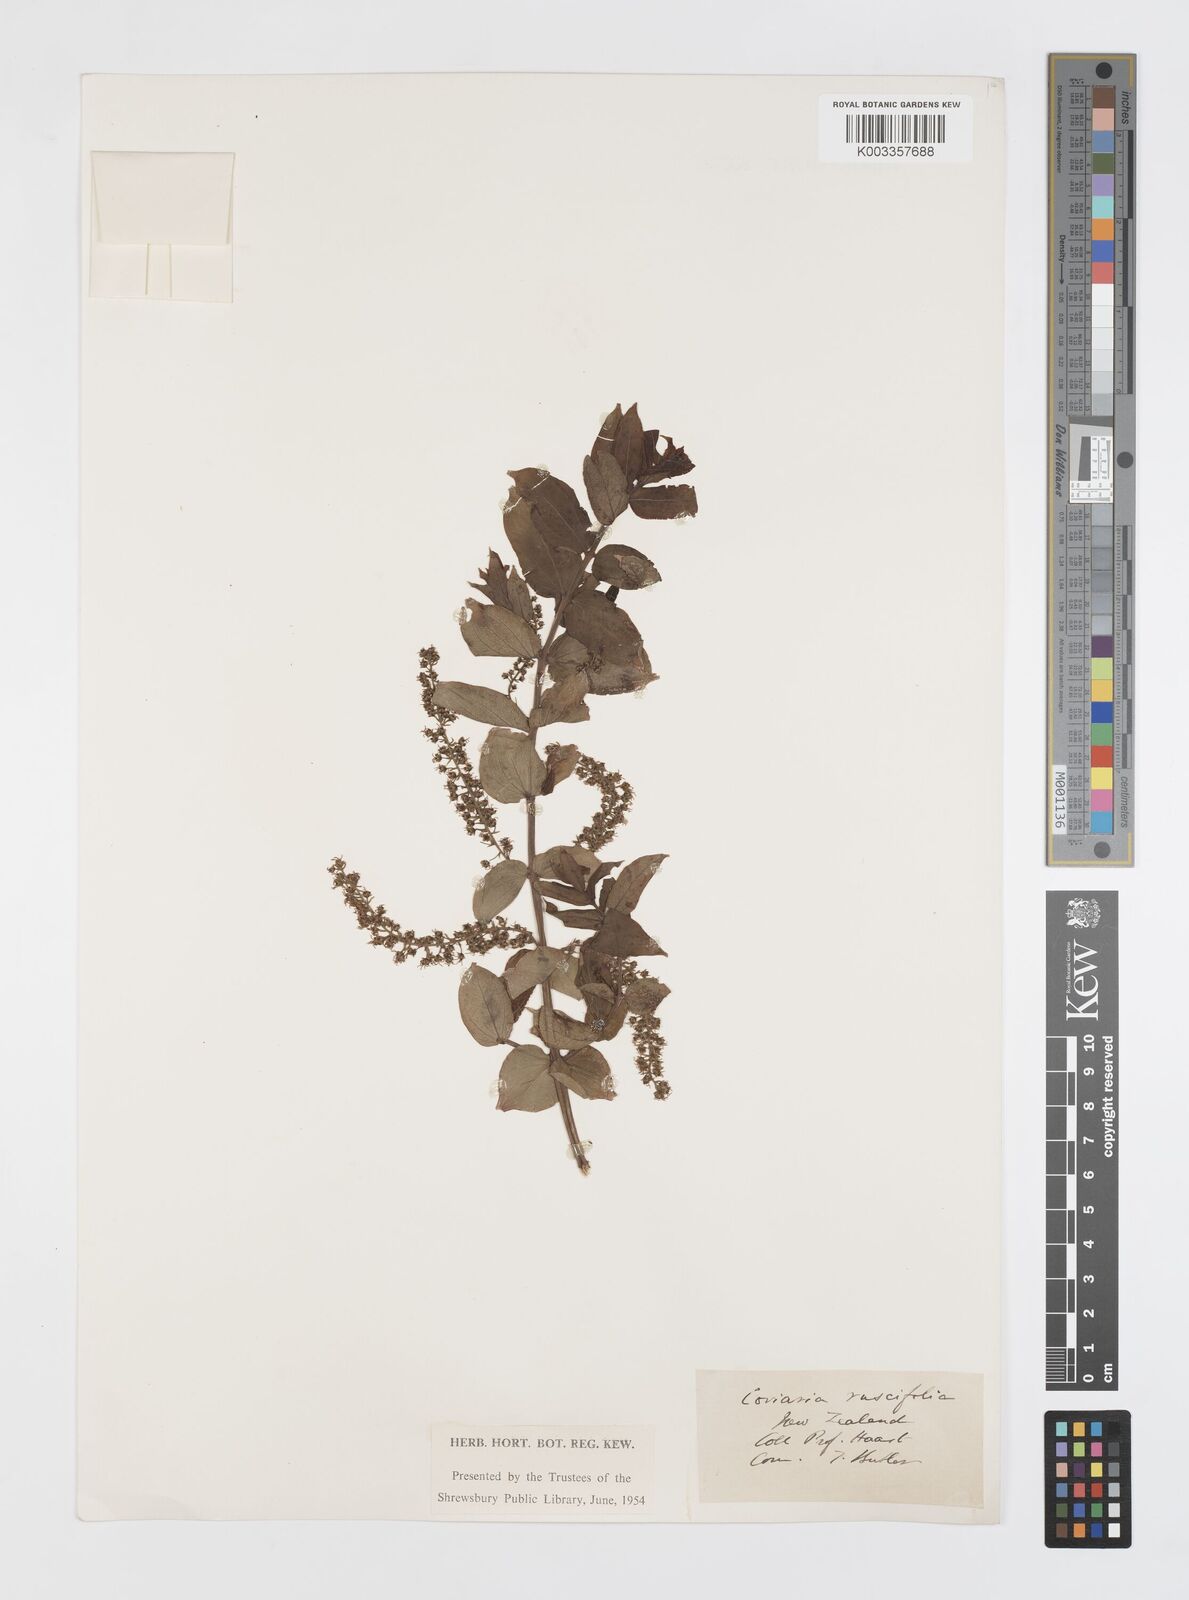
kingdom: Plantae
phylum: Tracheophyta
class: Magnoliopsida
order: Cucurbitales
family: Coriariaceae
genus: Coriaria
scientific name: Coriaria sarmentosa
